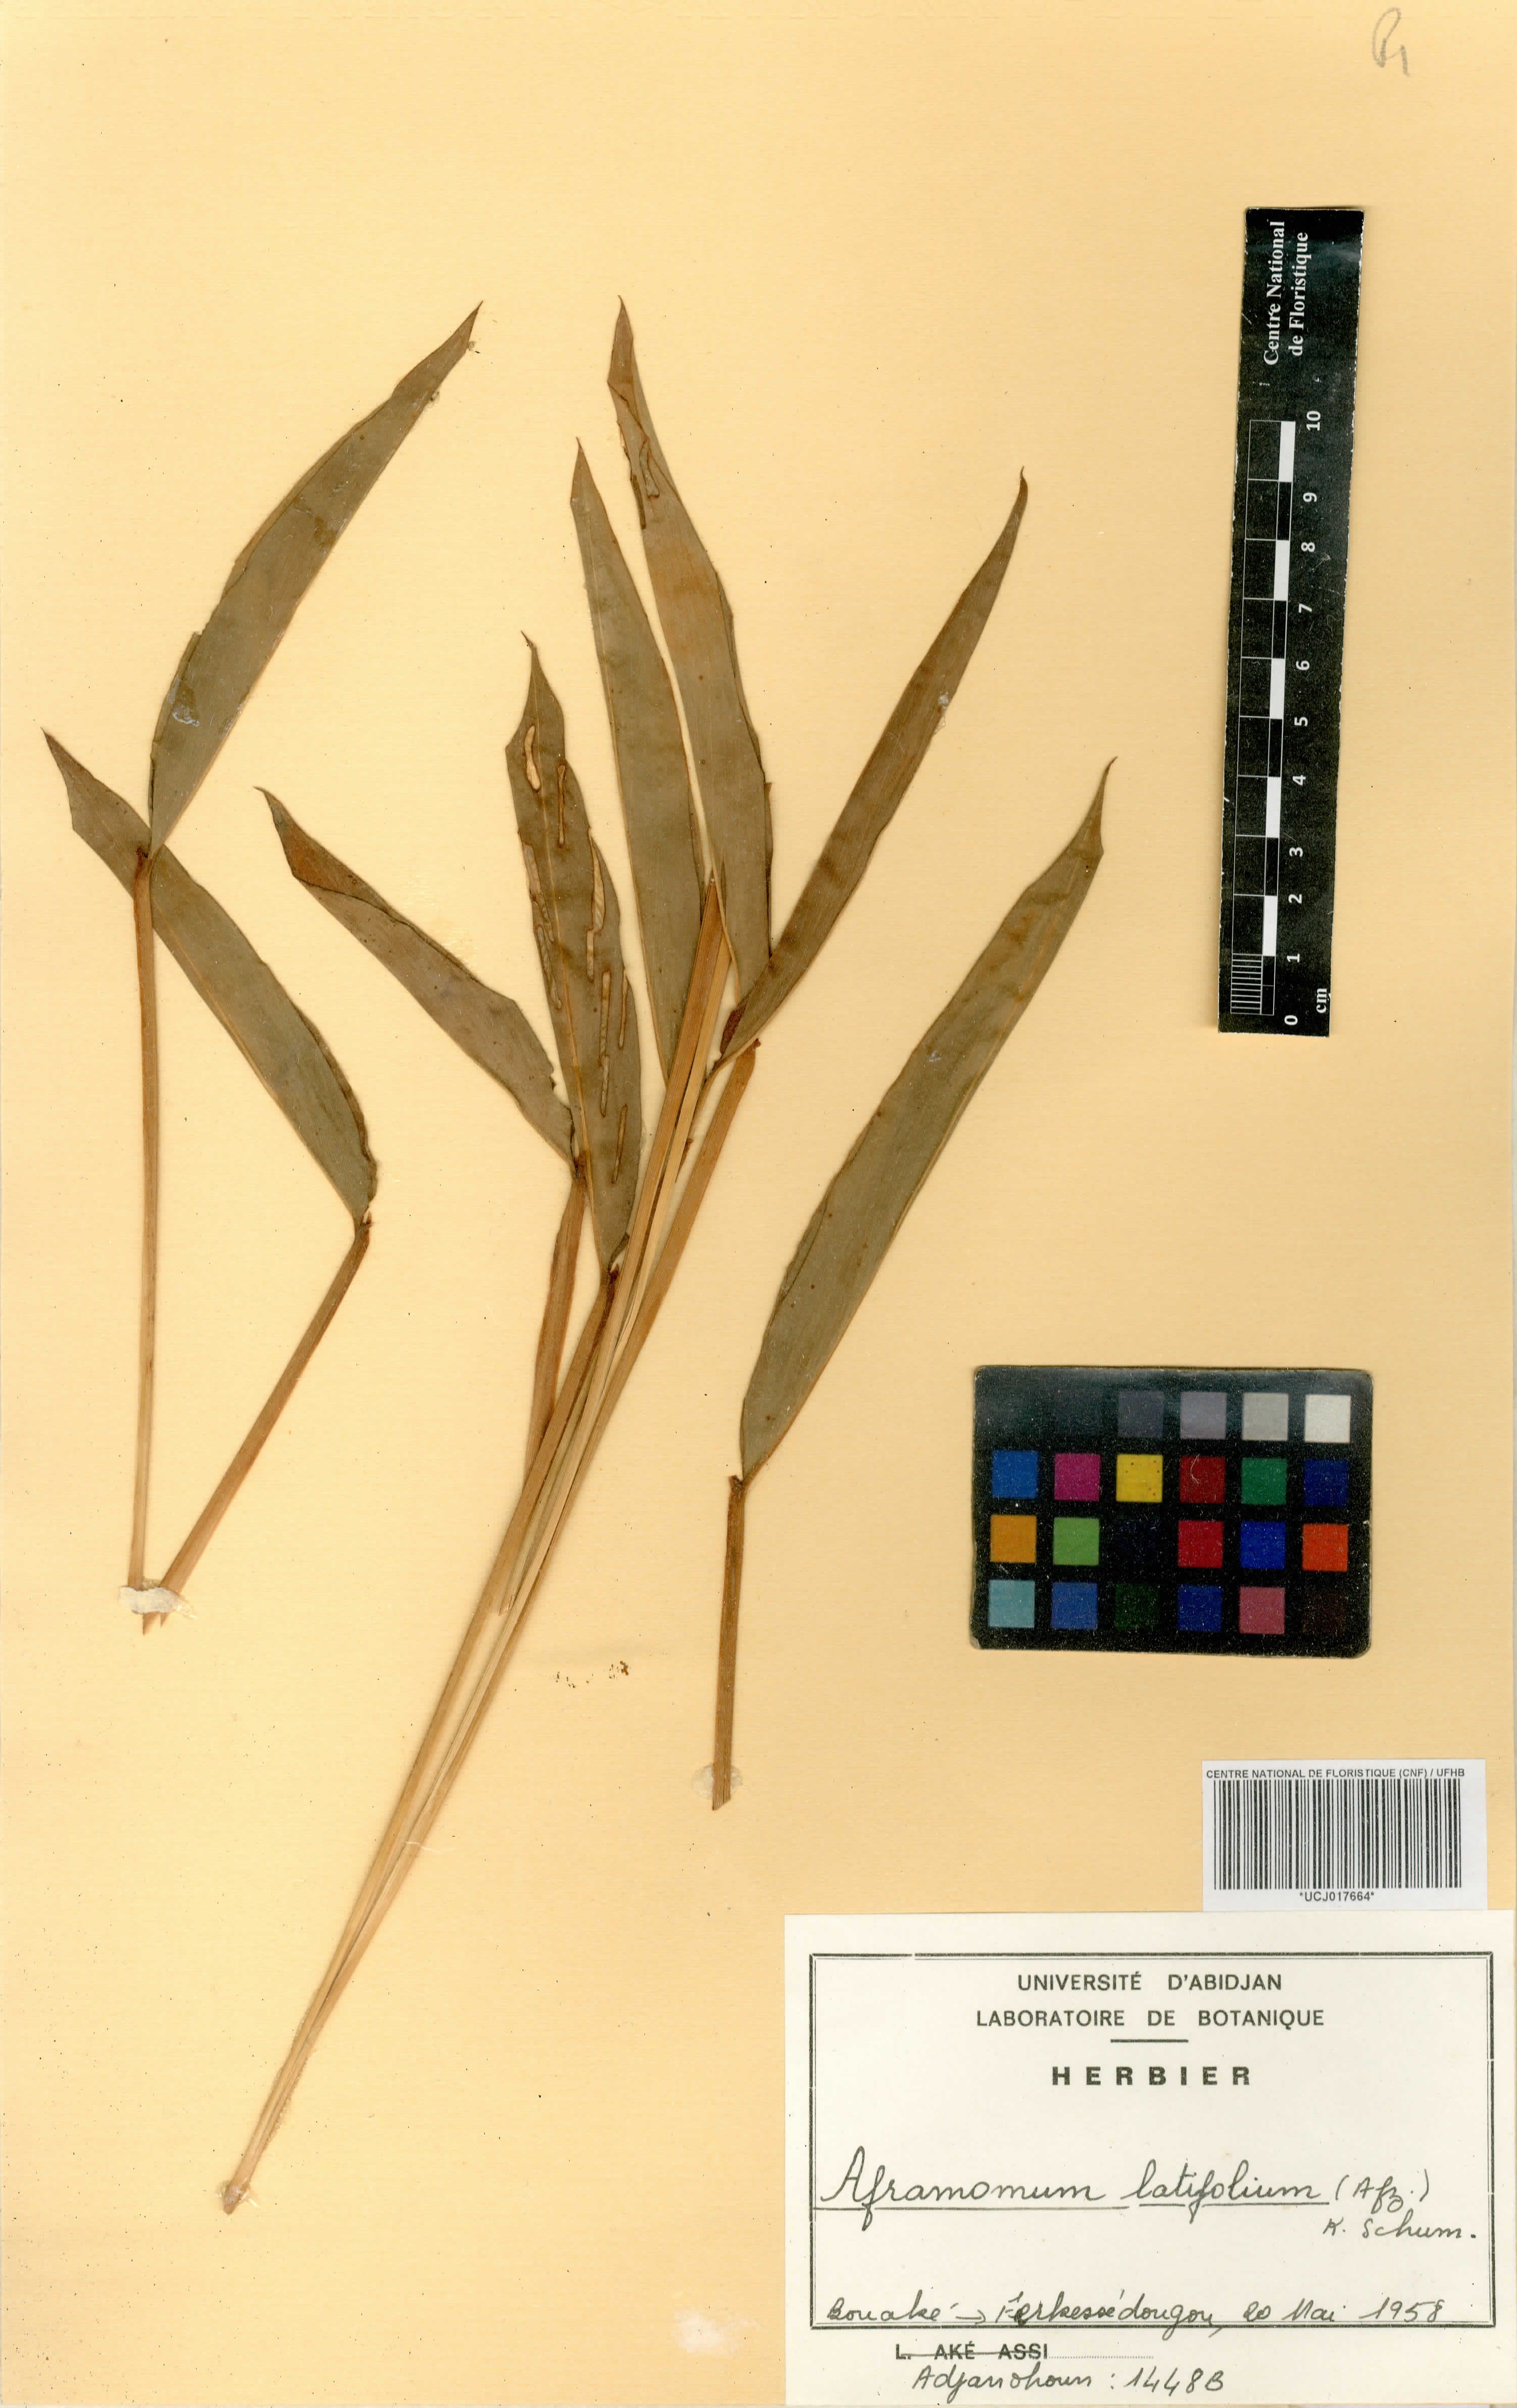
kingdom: Plantae
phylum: Tracheophyta
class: Liliopsida
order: Zingiberales
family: Zingiberaceae
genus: Aframomum
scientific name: Aframomum alboviolaceum
